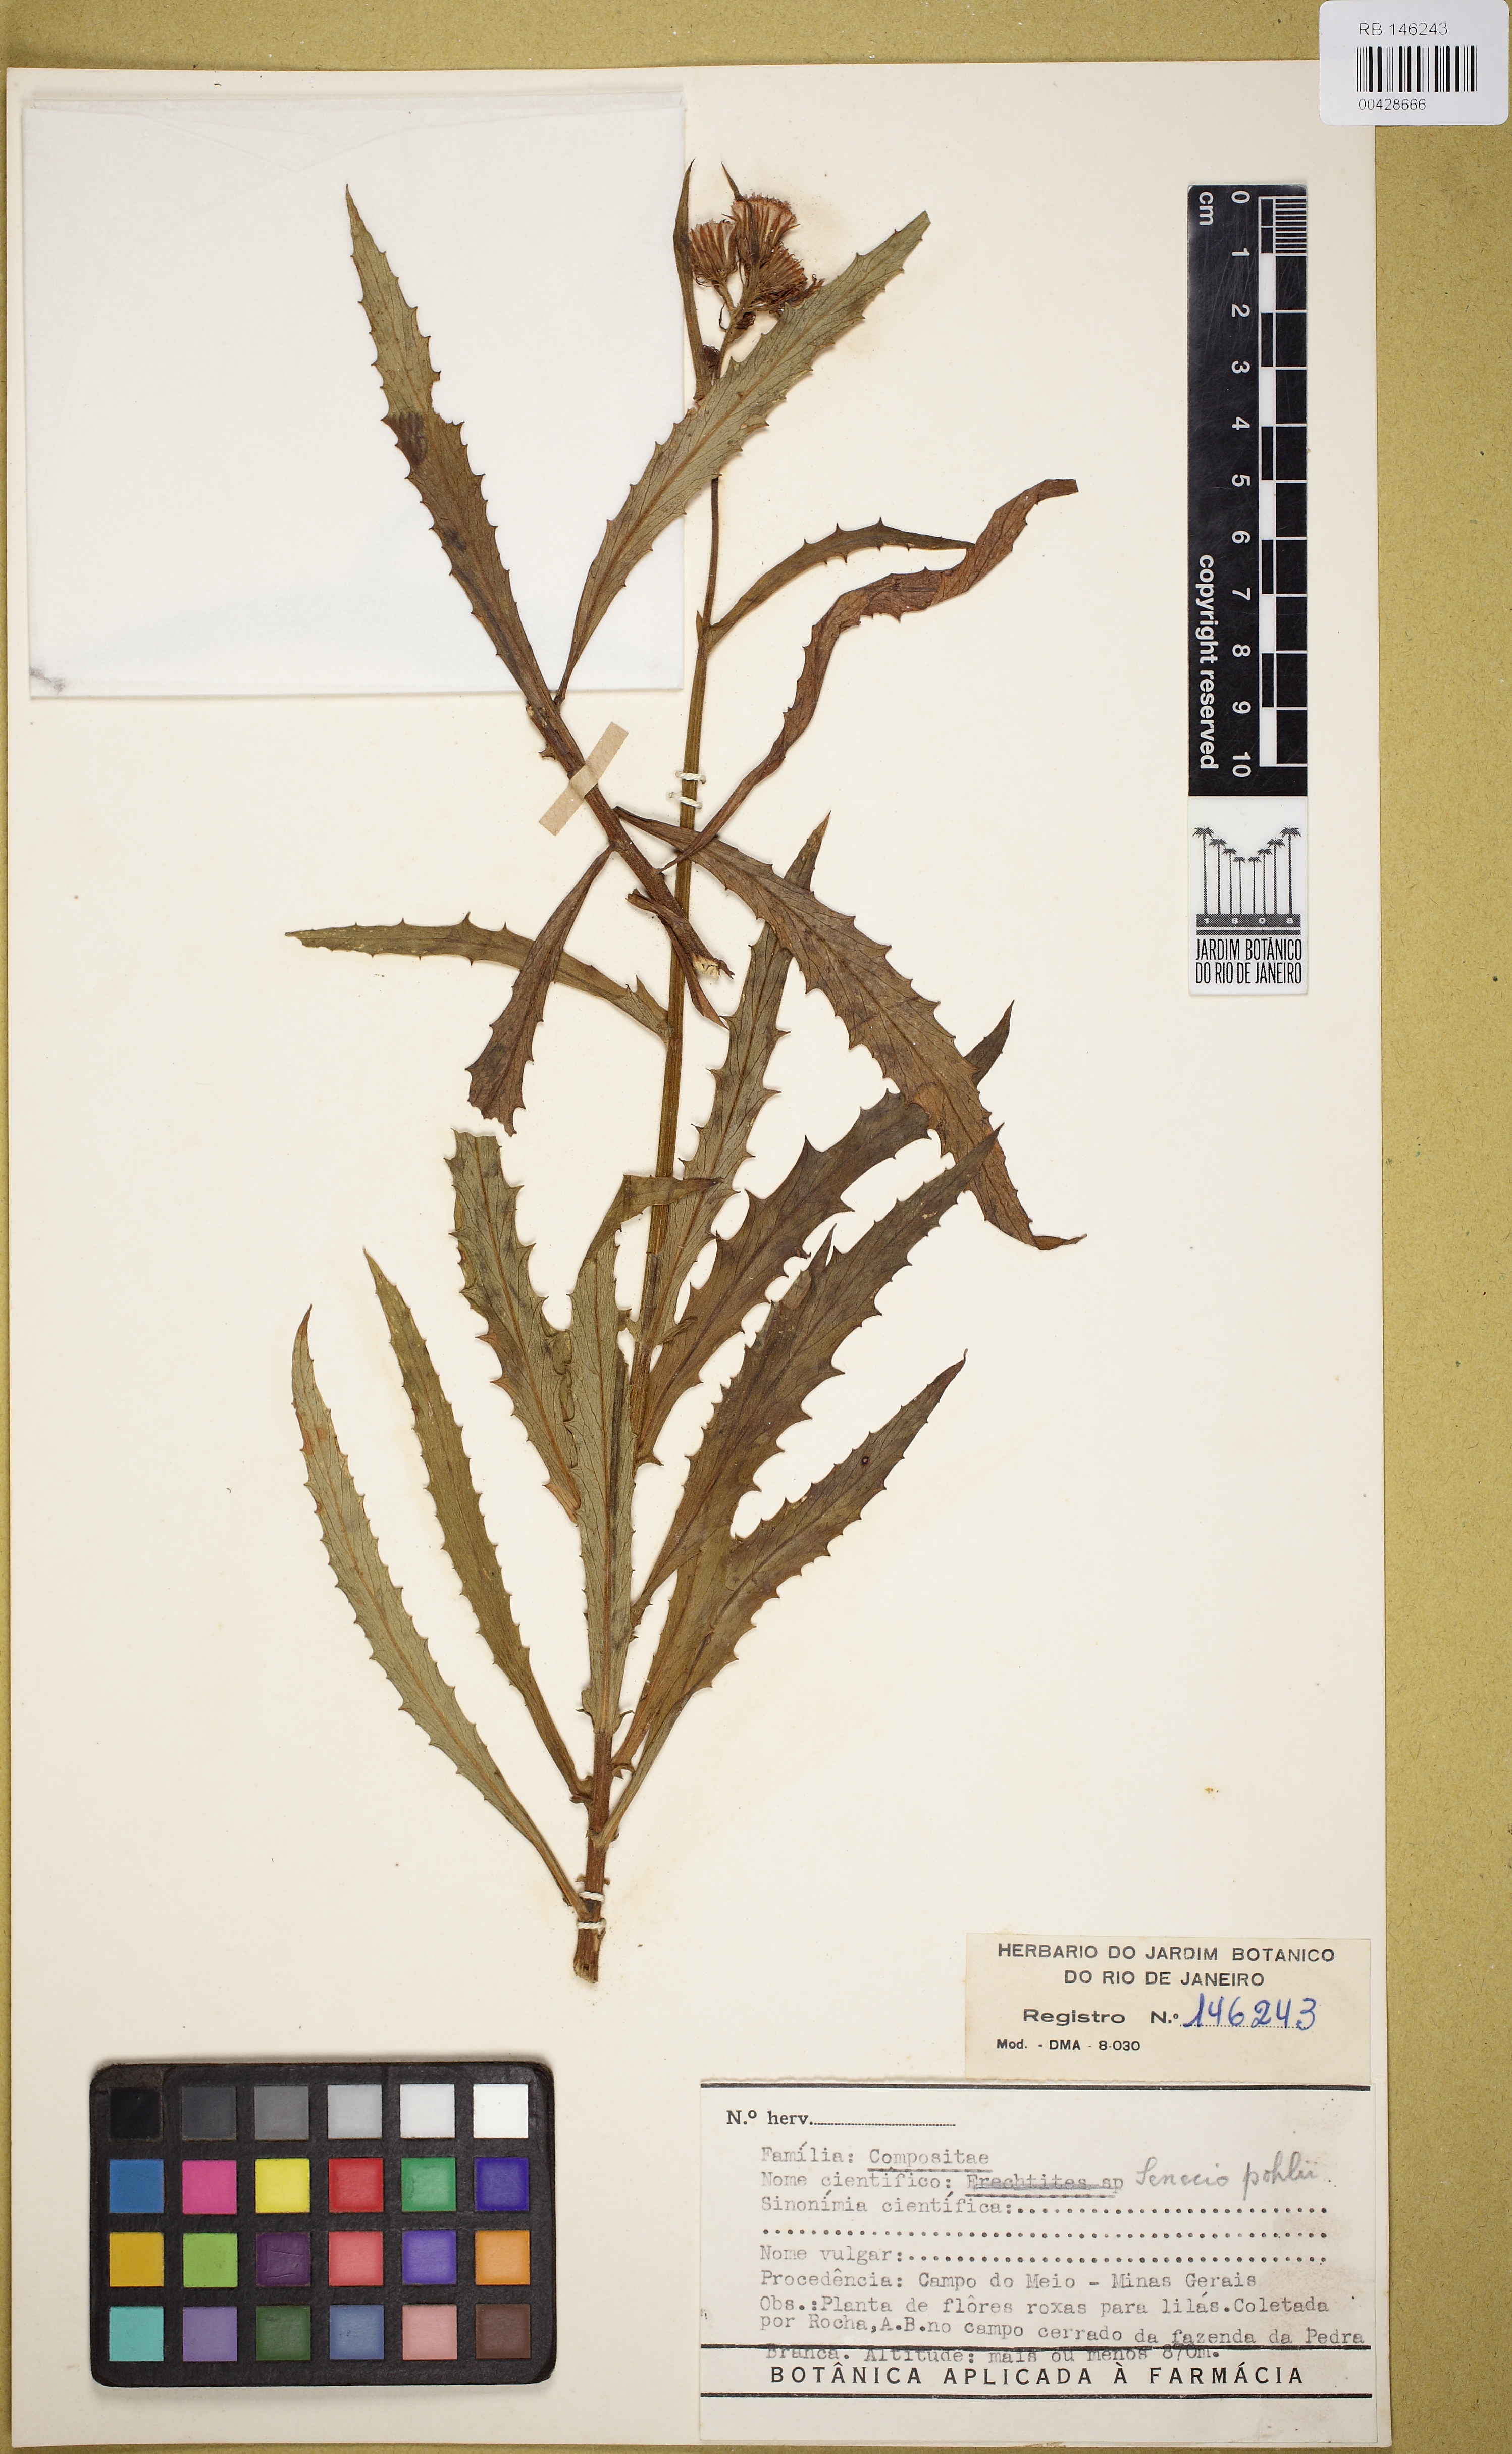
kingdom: Plantae
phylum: Tracheophyta
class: Magnoliopsida
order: Asterales
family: Asteraceae
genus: Pseudogynoxys
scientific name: Pseudogynoxys pohlii
